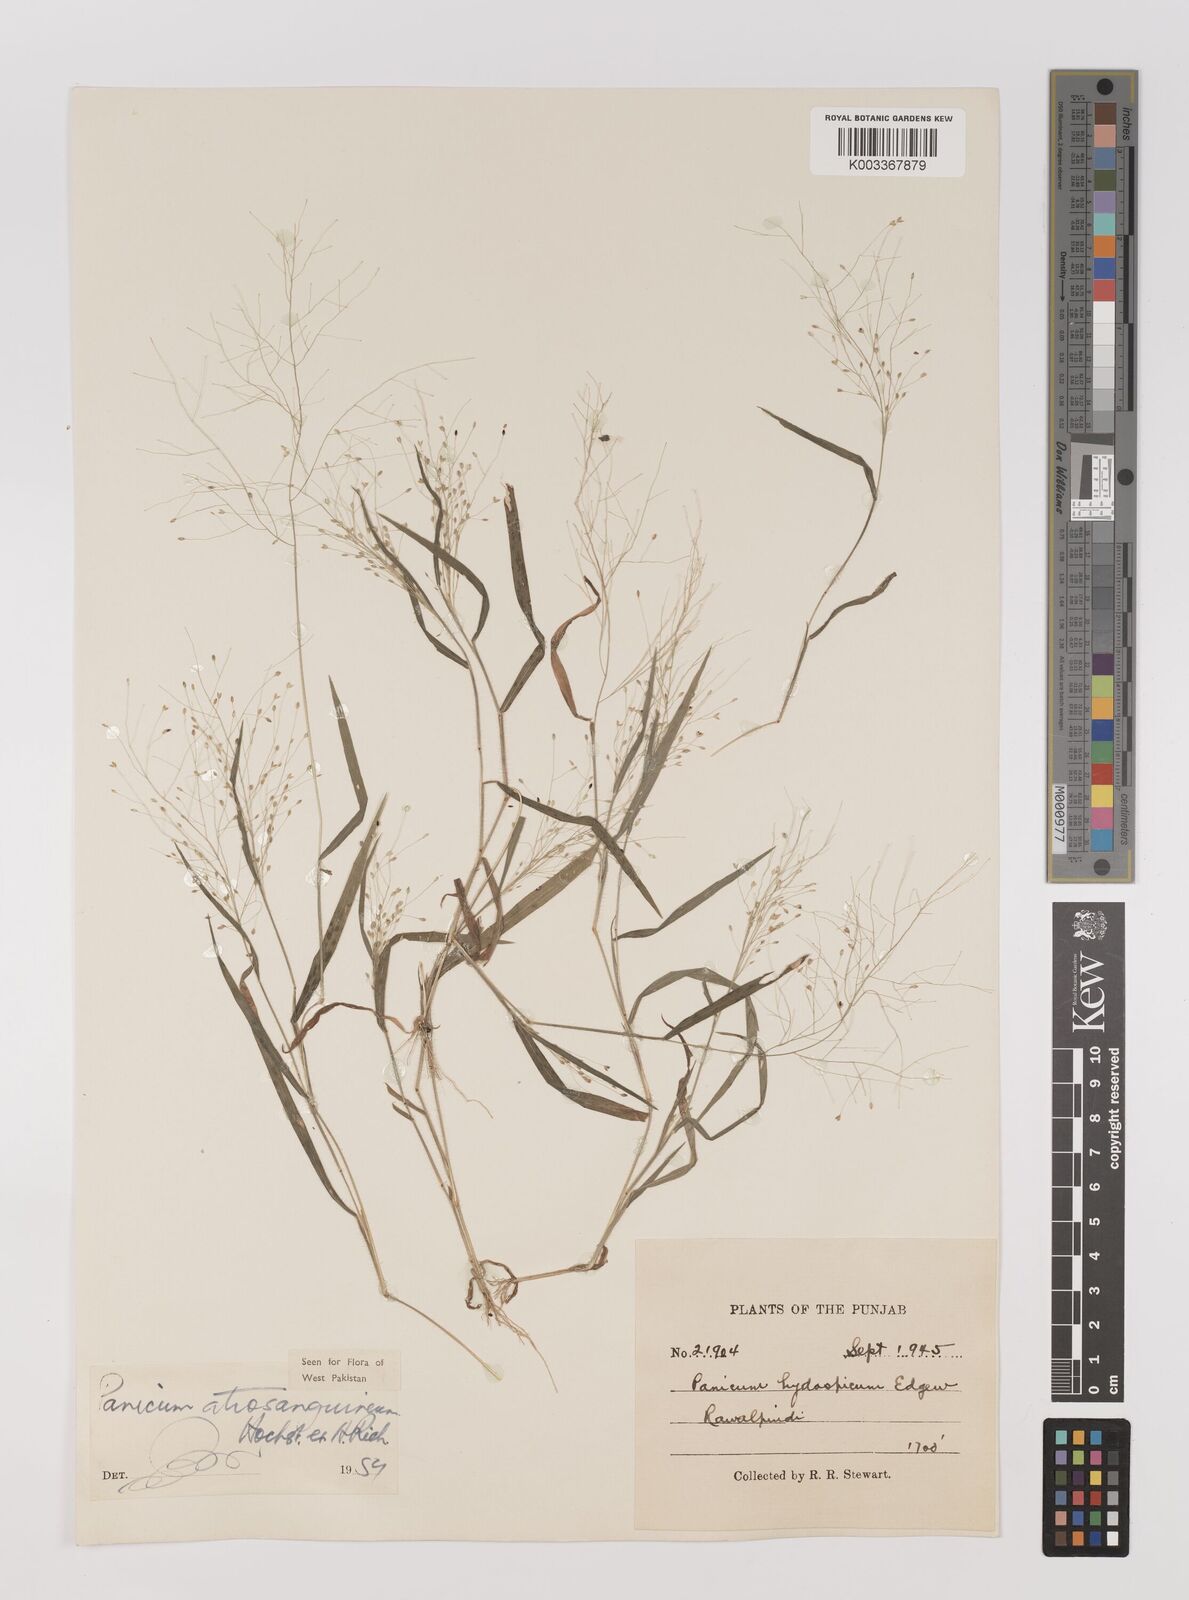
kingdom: Plantae
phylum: Tracheophyta
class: Liliopsida
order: Poales
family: Poaceae
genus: Panicum
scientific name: Panicum atrosanguineum
